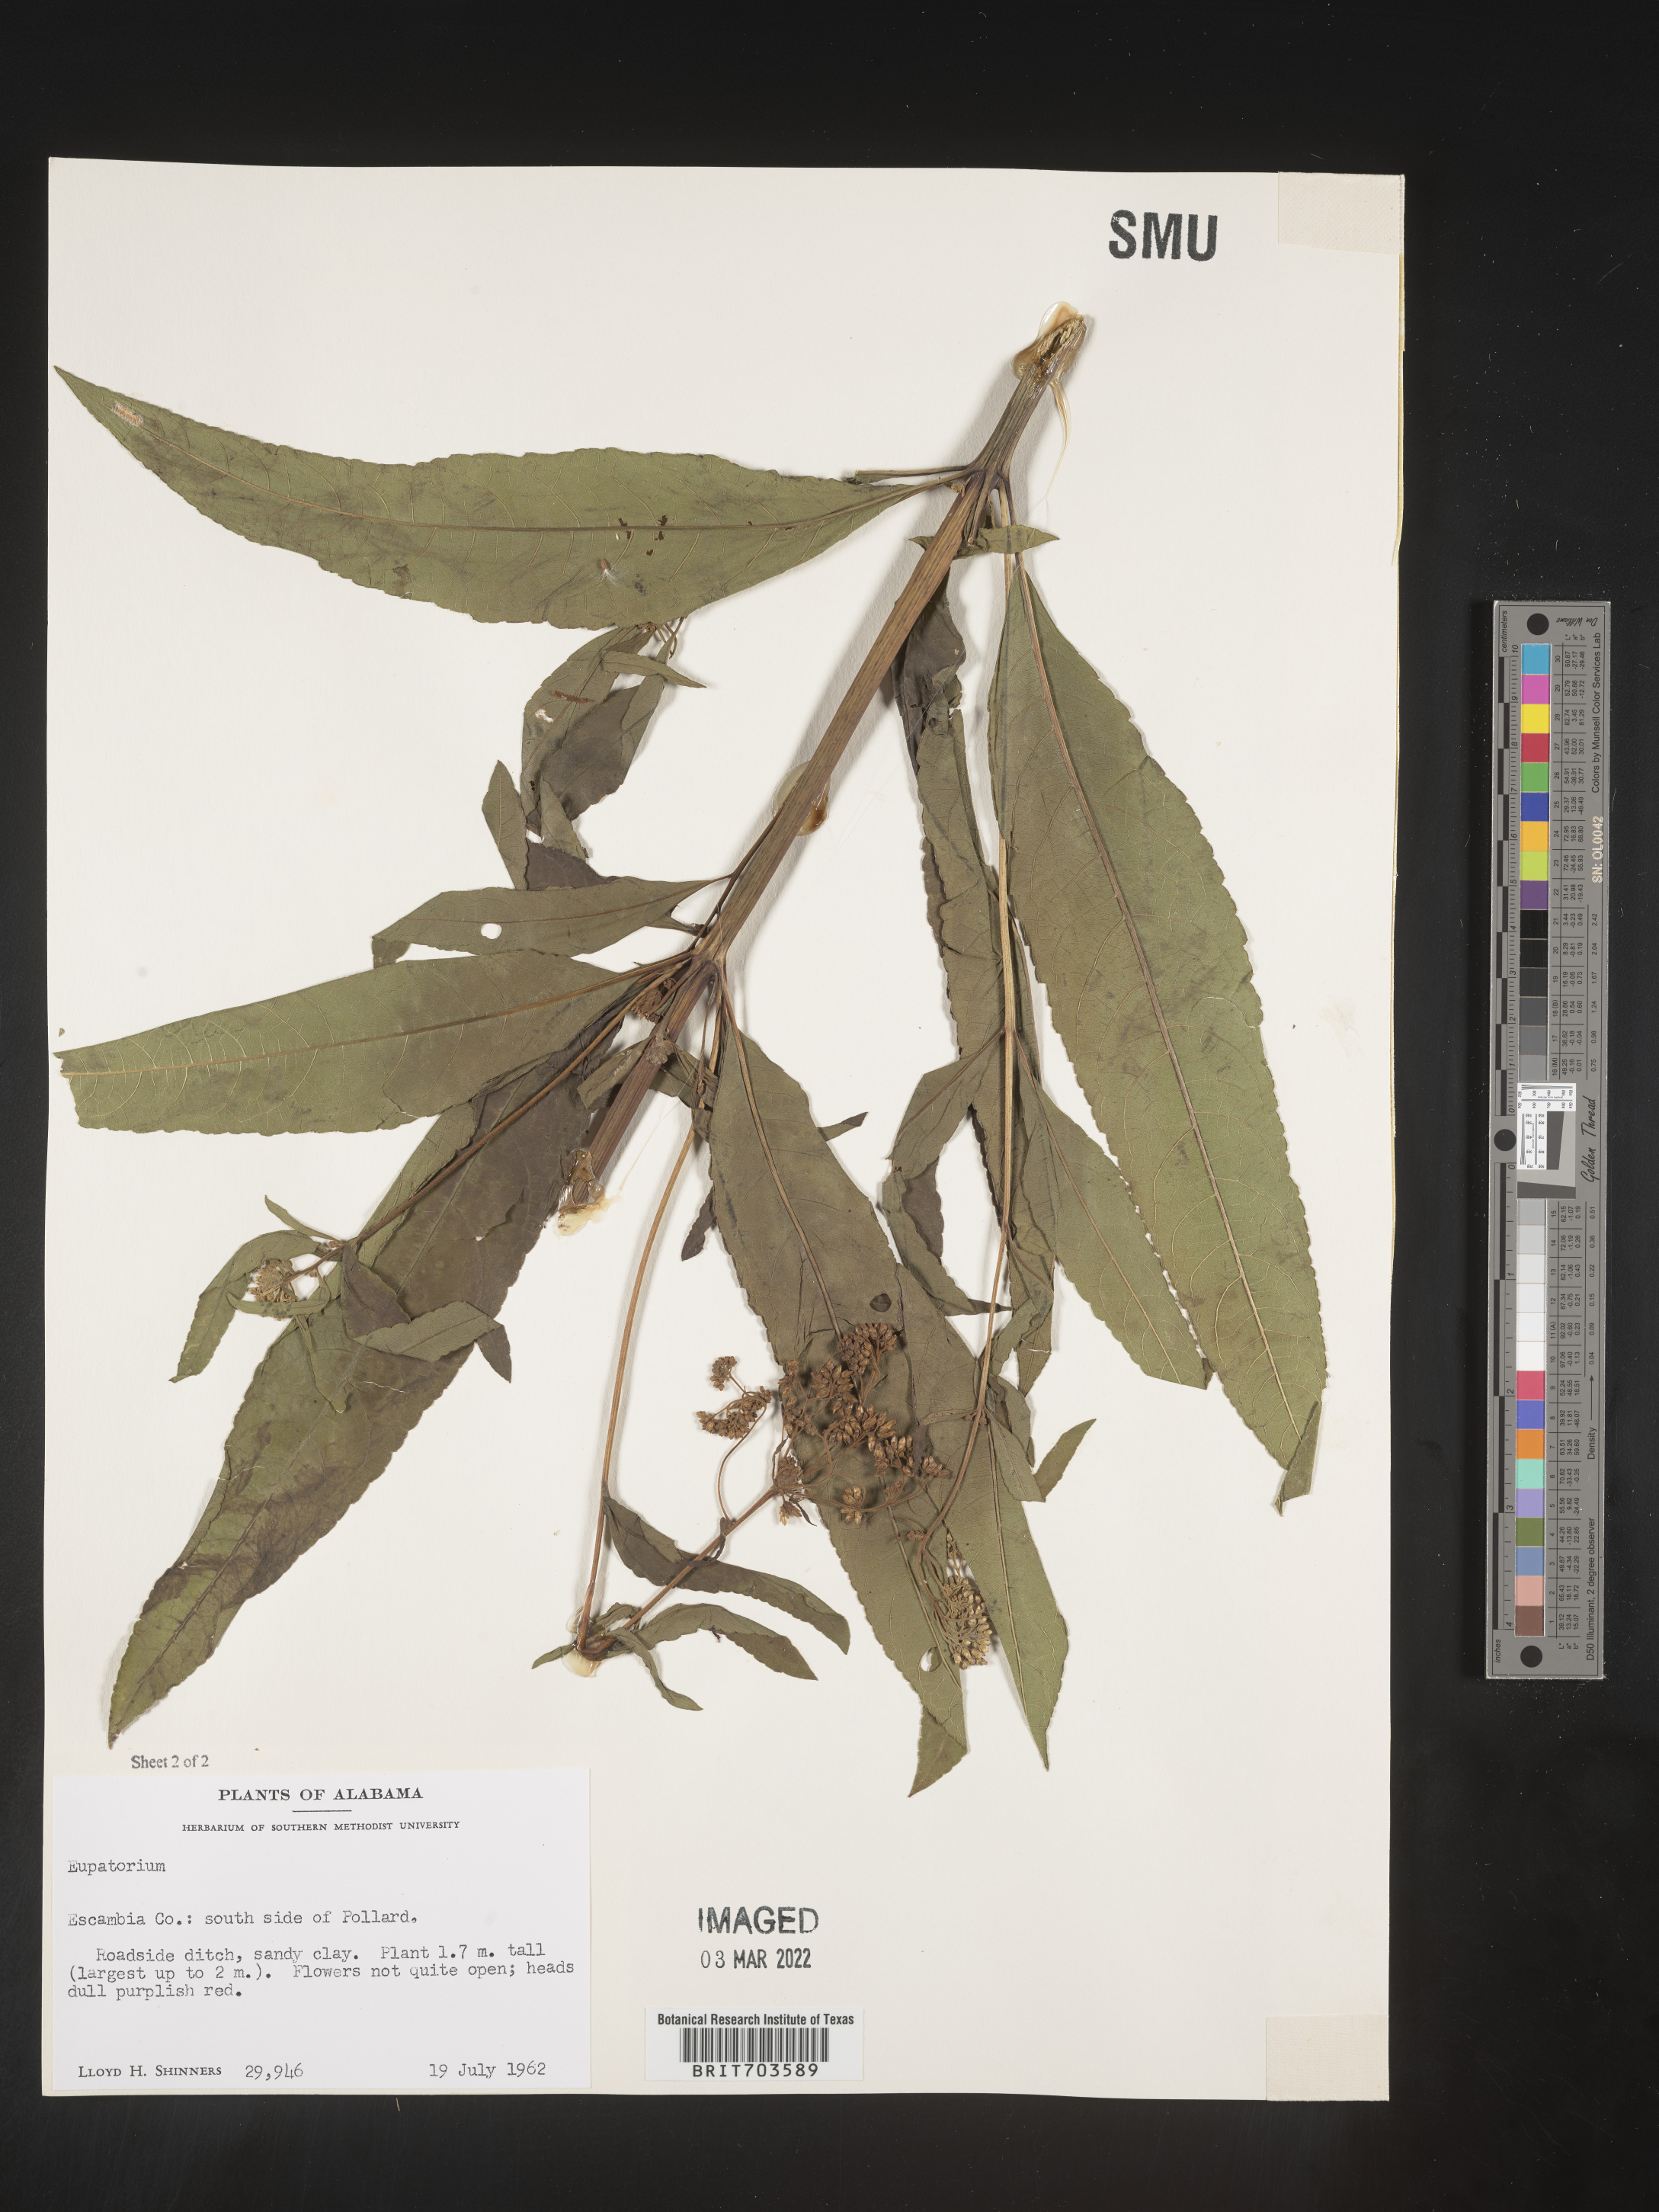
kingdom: Plantae
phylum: Tracheophyta
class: Magnoliopsida
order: Asterales
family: Asteraceae
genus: Eupatorium
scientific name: Eupatorium
